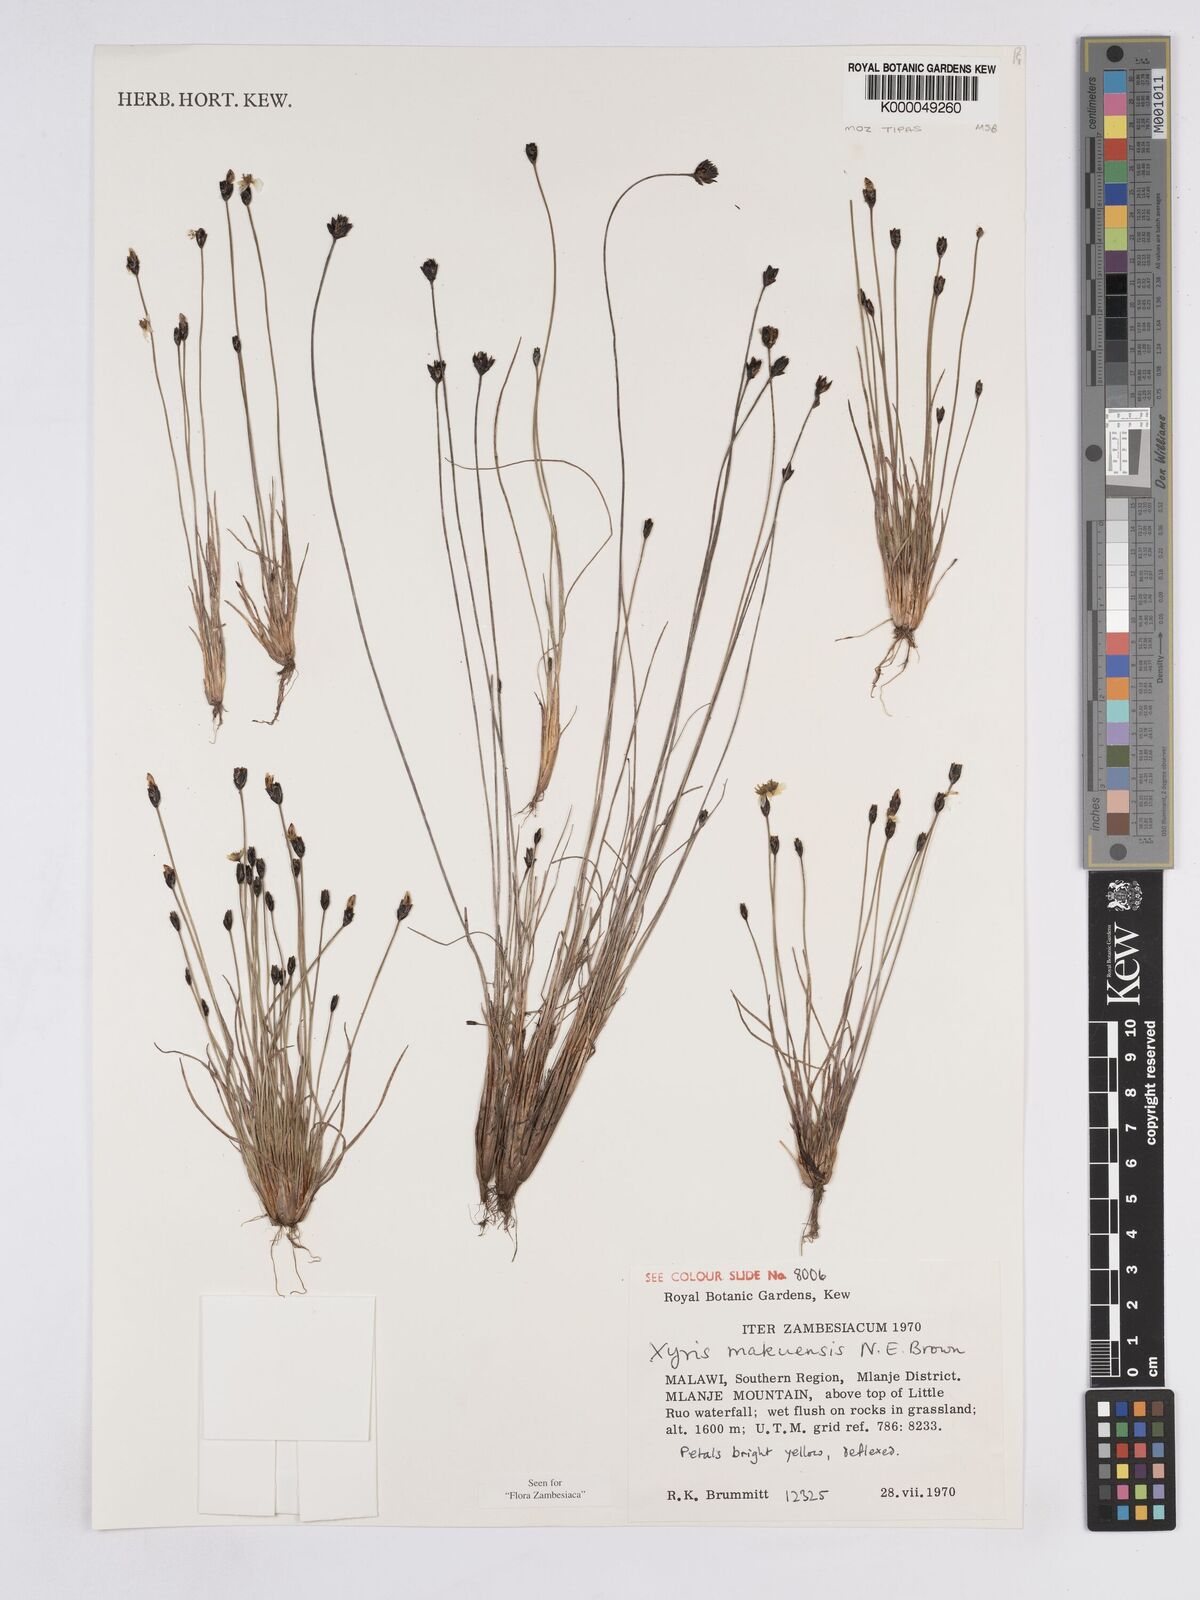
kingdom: Plantae
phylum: Tracheophyta
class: Liliopsida
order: Poales
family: Xyridaceae
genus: Xyris
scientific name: Xyris makuensis
